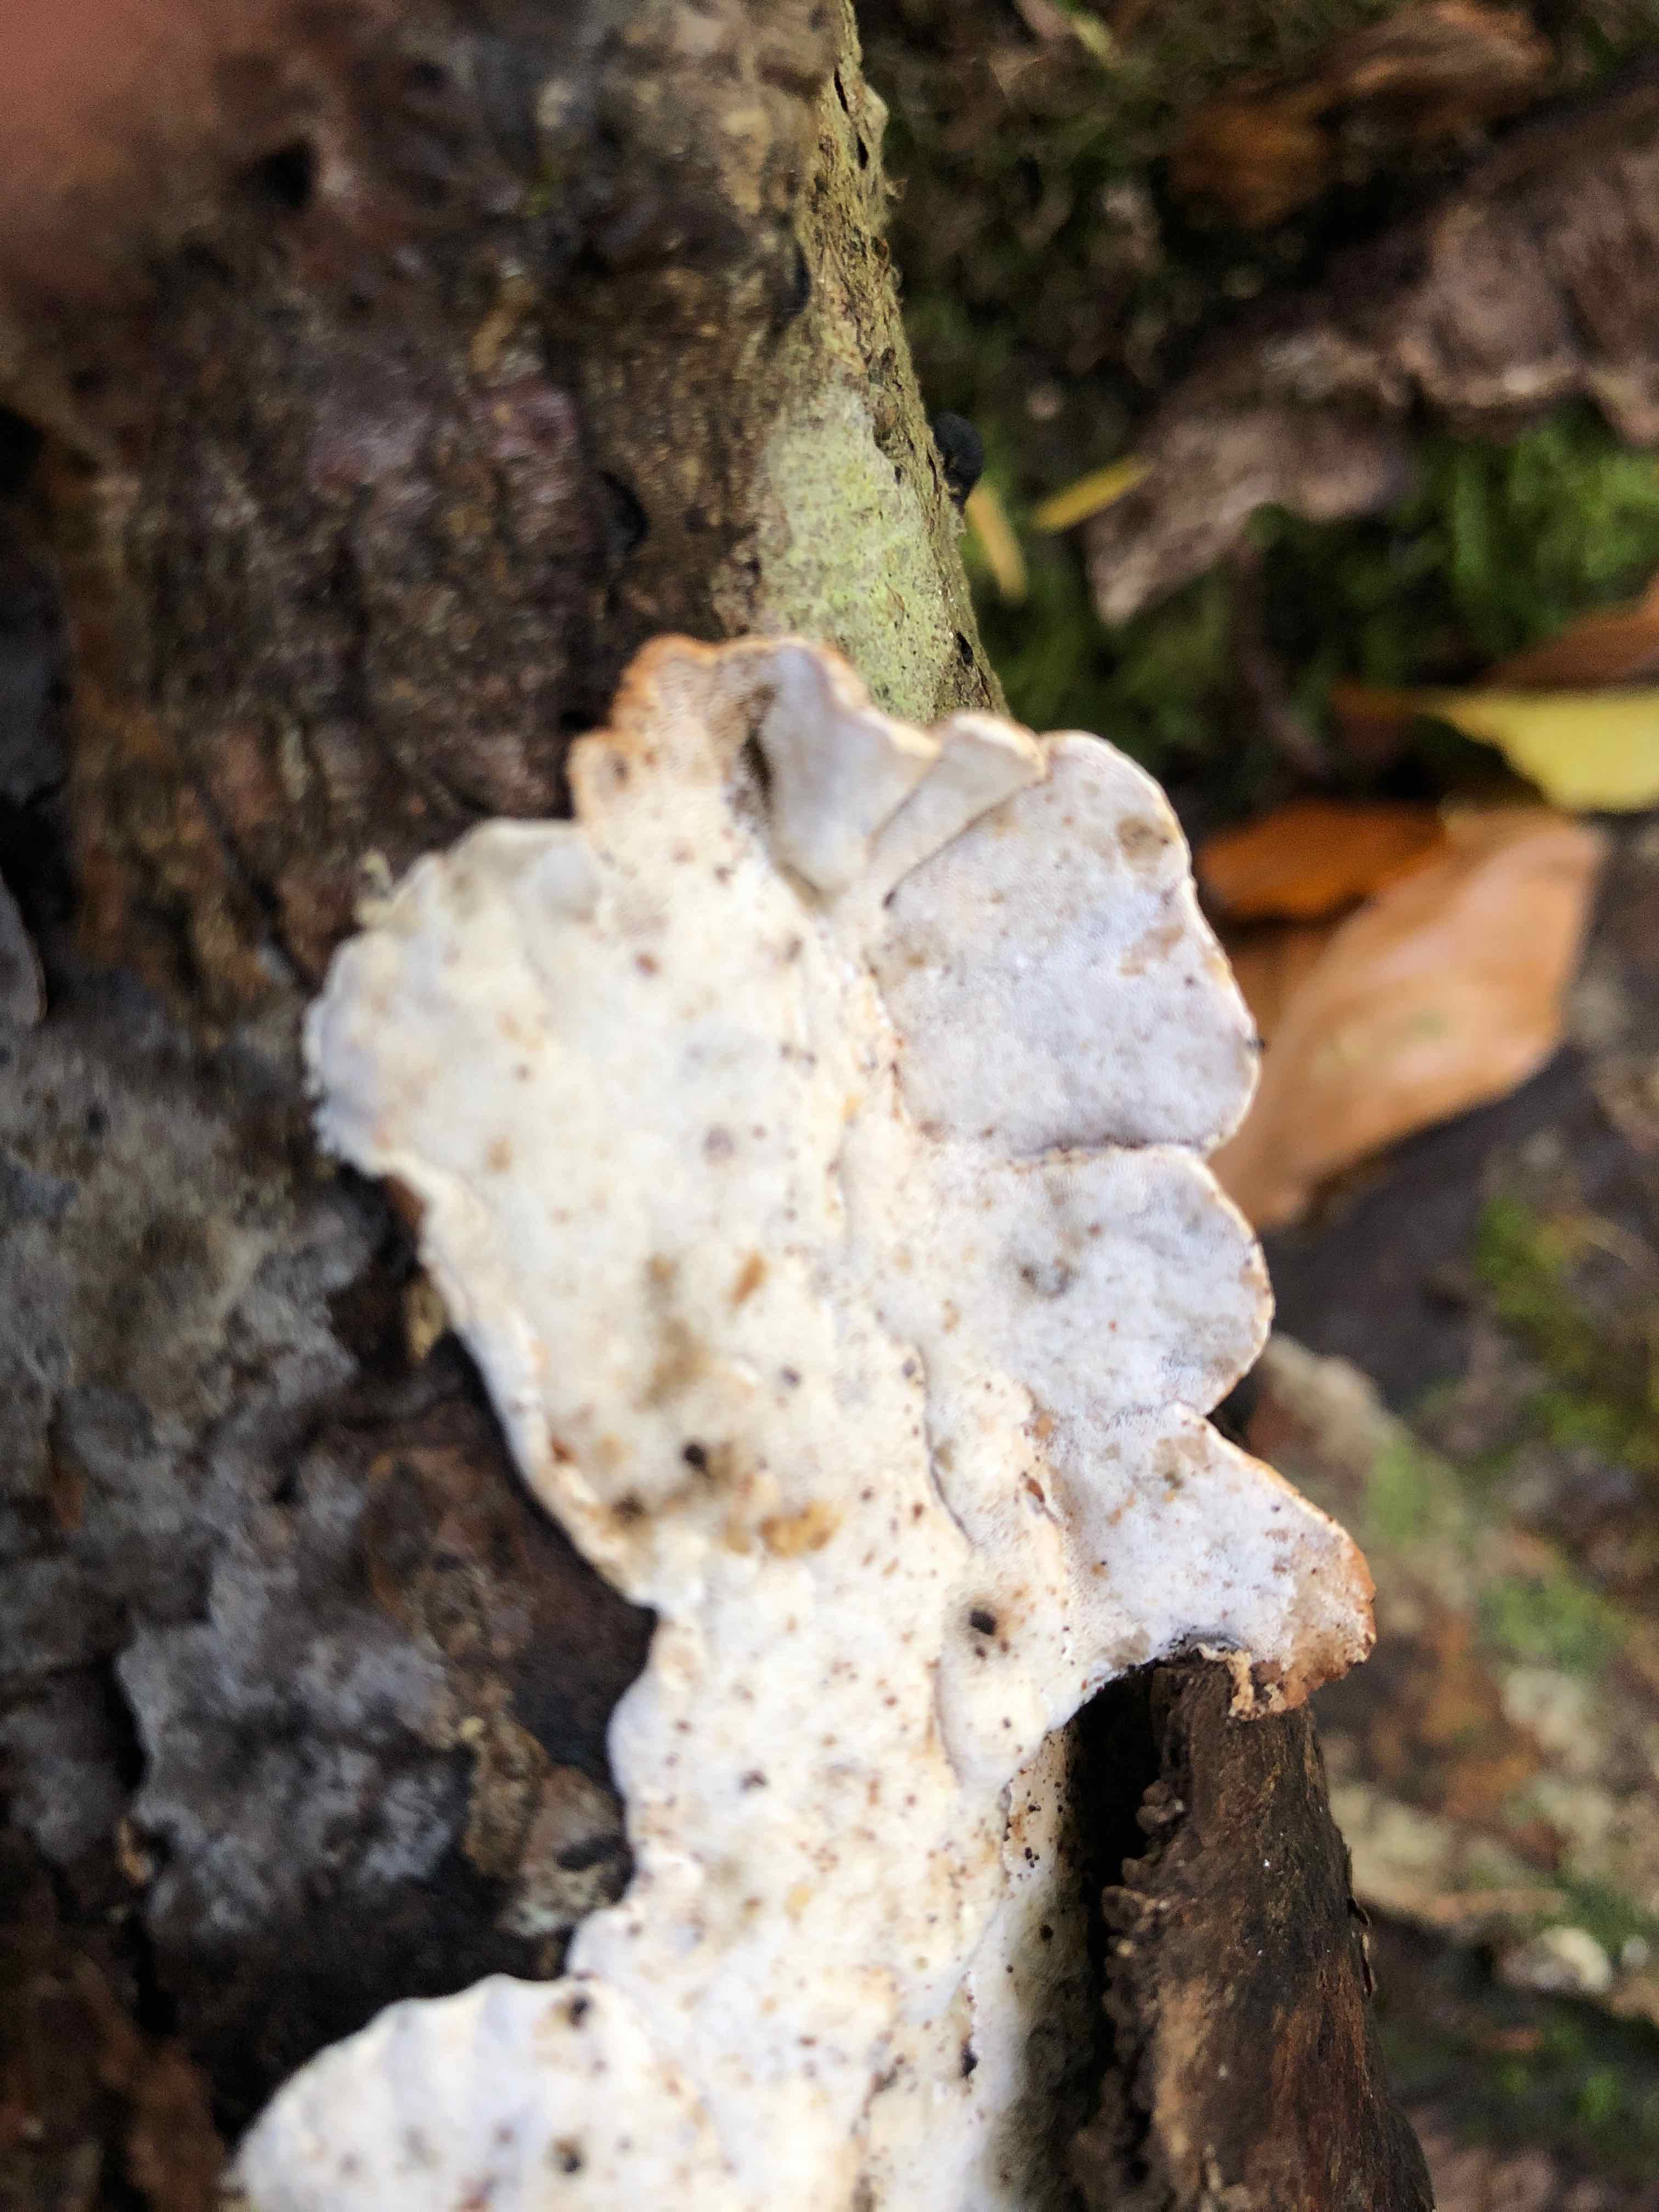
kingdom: Fungi
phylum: Basidiomycota
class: Agaricomycetes
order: Polyporales
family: Incrustoporiaceae
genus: Skeletocutis
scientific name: Skeletocutis nemoralis
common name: stor krystalporesvamp
